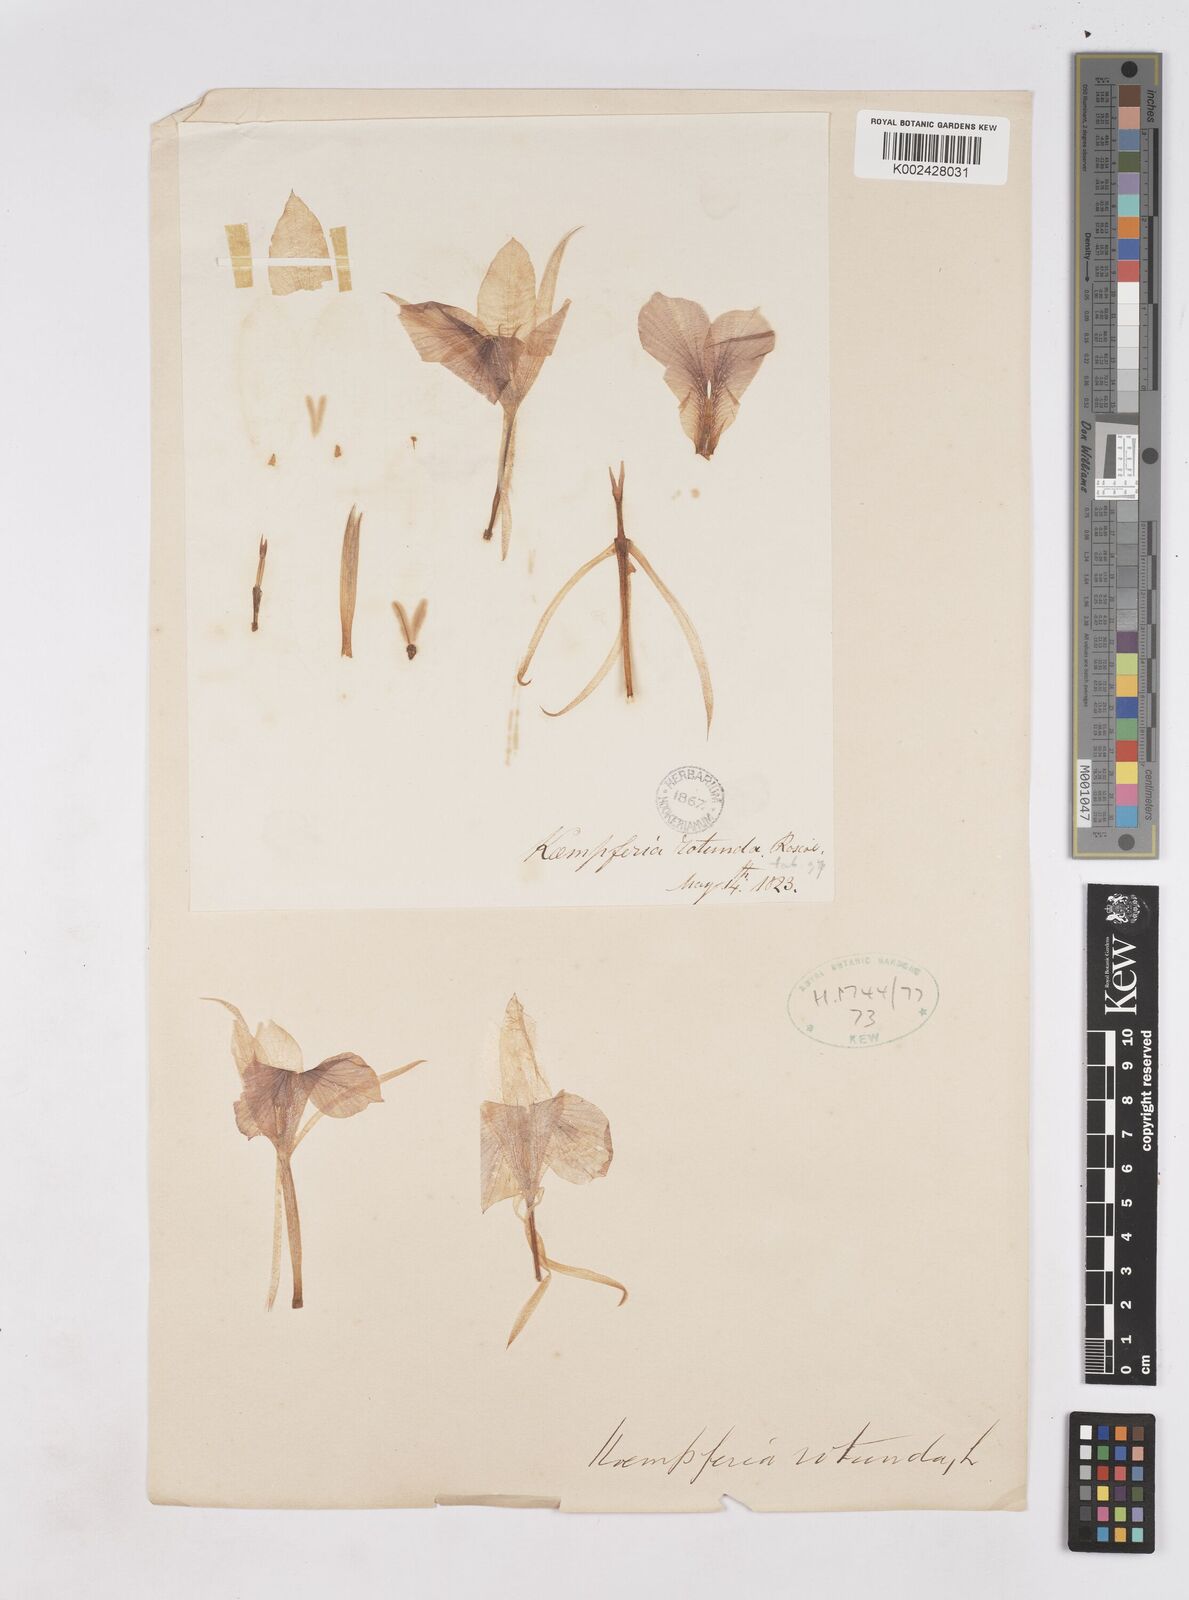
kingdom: Plantae
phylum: Tracheophyta
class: Liliopsida
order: Zingiberales
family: Zingiberaceae
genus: Kaempferia
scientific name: Kaempferia rotunda
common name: Tropical-crocus
